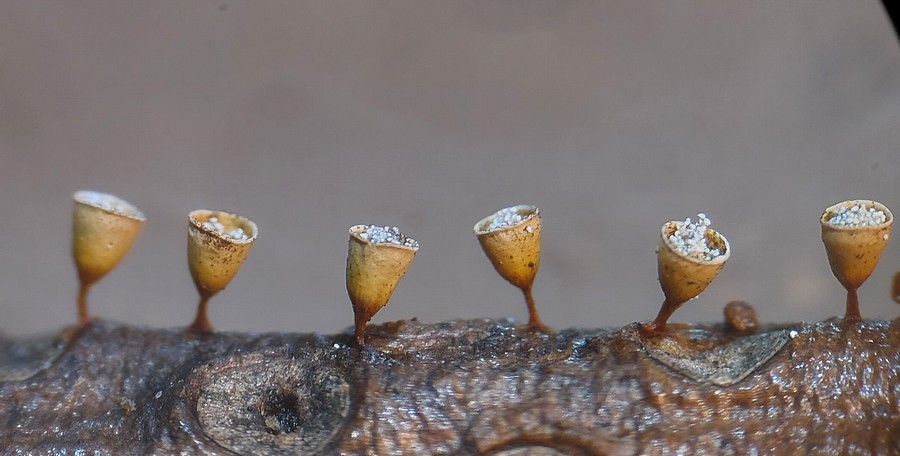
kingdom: Protozoa
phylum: Mycetozoa
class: Myxomycetes
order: Physarales
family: Physaraceae
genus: Craterium
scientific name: Craterium minutum
